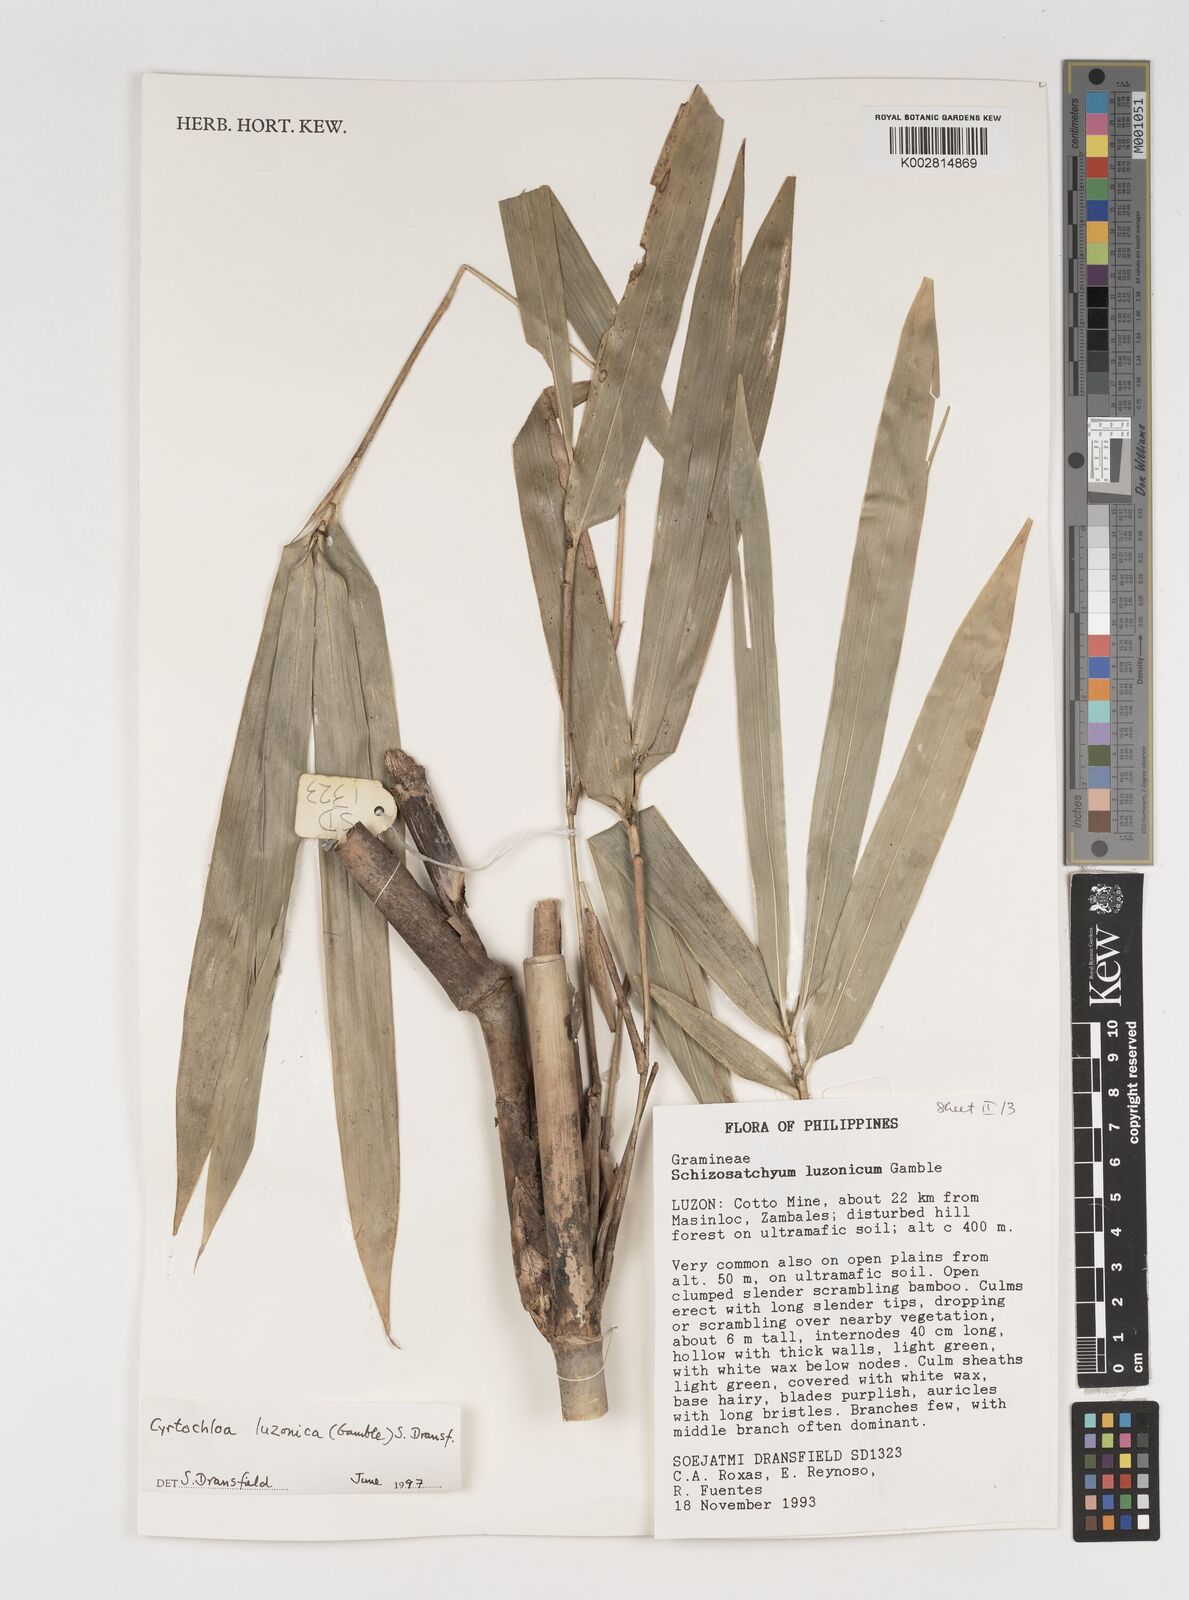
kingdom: Plantae
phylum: Tracheophyta
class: Liliopsida
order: Poales
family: Poaceae
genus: Cyrtochloa
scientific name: Cyrtochloa luzonica
